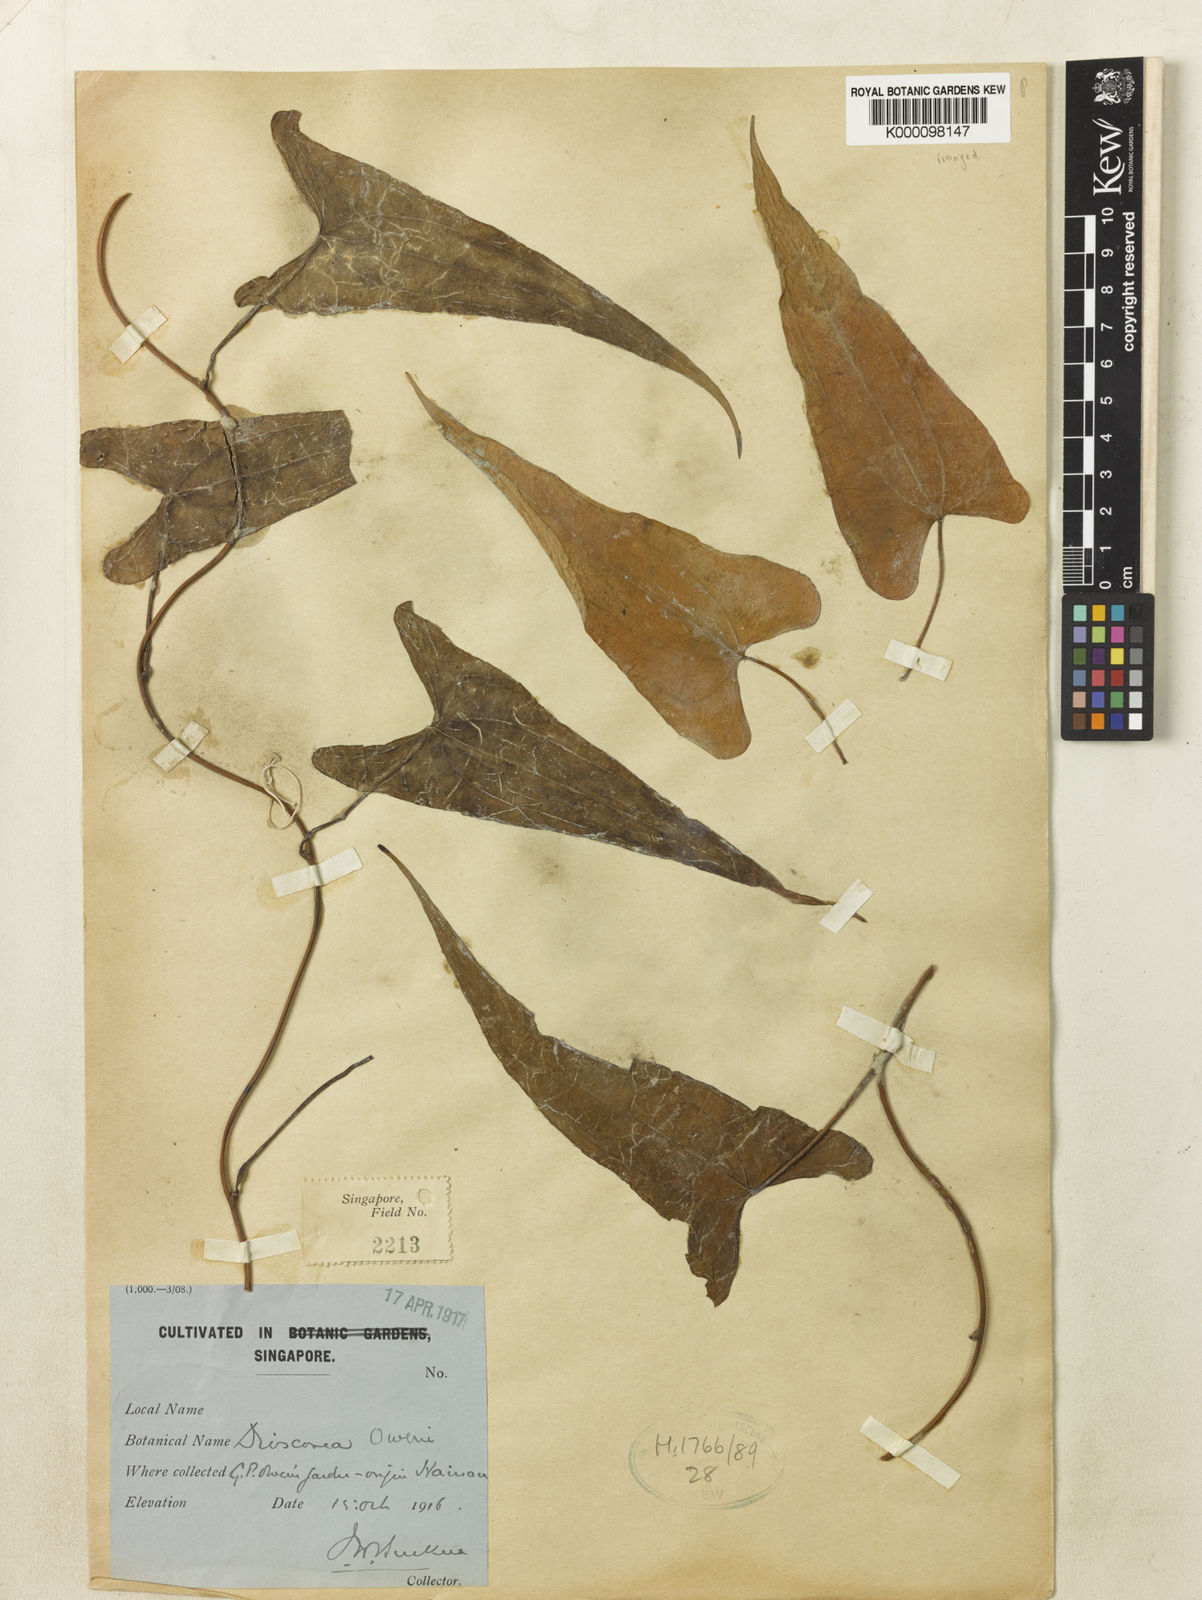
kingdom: Plantae
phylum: Tracheophyta
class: Liliopsida
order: Dioscoreales
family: Dioscoreaceae
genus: Dioscorea
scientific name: Dioscorea owenii
